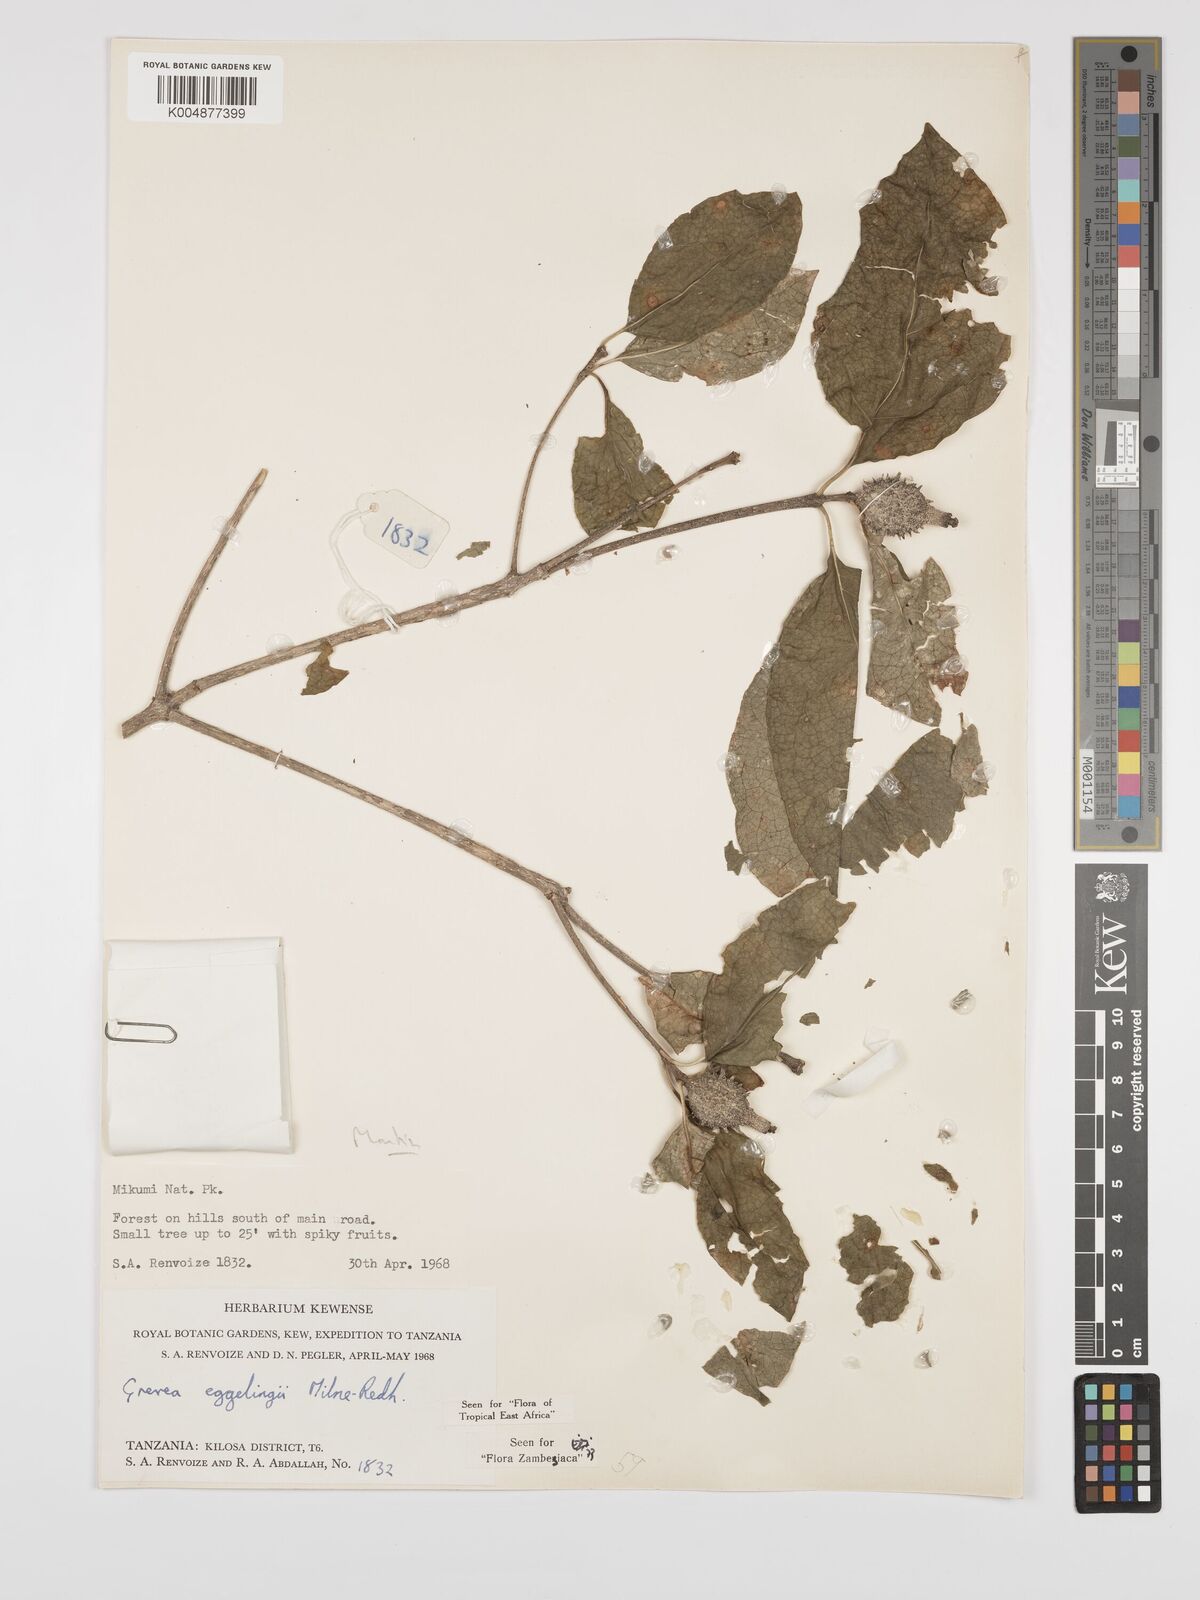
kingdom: Plantae
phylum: Tracheophyta
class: Magnoliopsida
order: Solanales
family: Montiniaceae
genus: Grevea
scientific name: Grevea eggelingii
